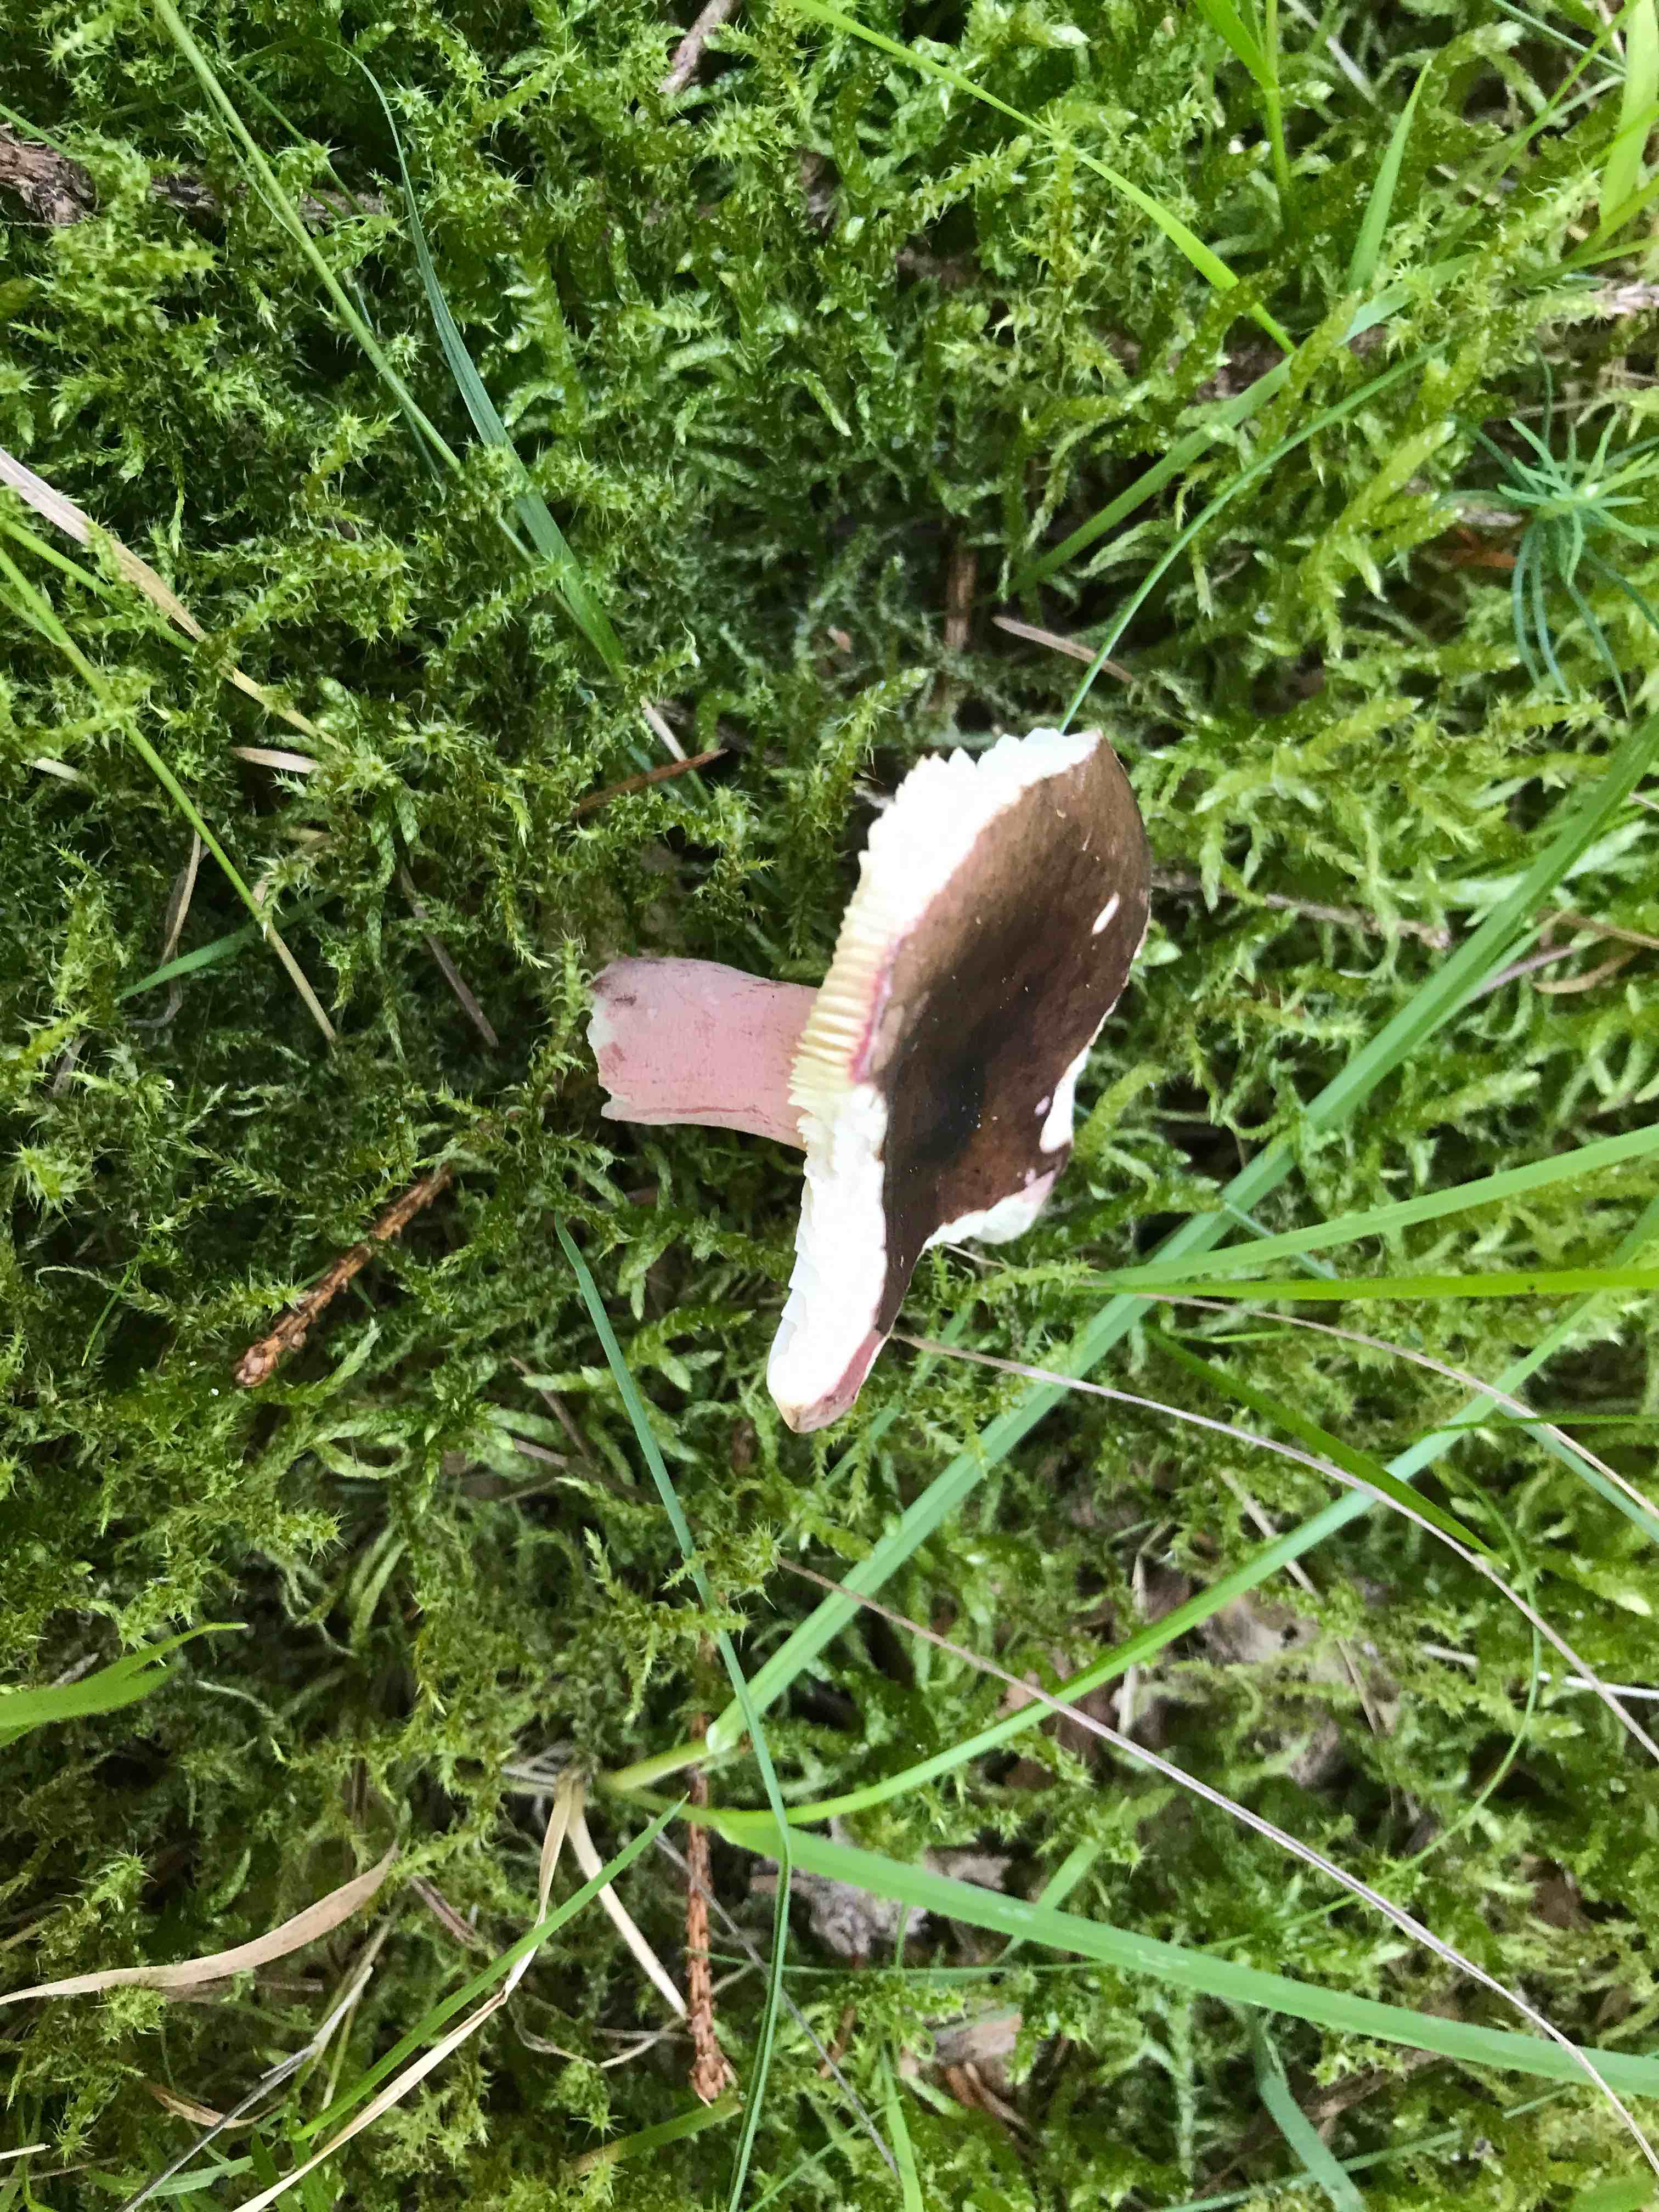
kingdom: Fungi
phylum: Basidiomycota
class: Agaricomycetes
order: Russulales
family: Russulaceae
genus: Russula
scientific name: Russula queletii
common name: Quélets skørhat
